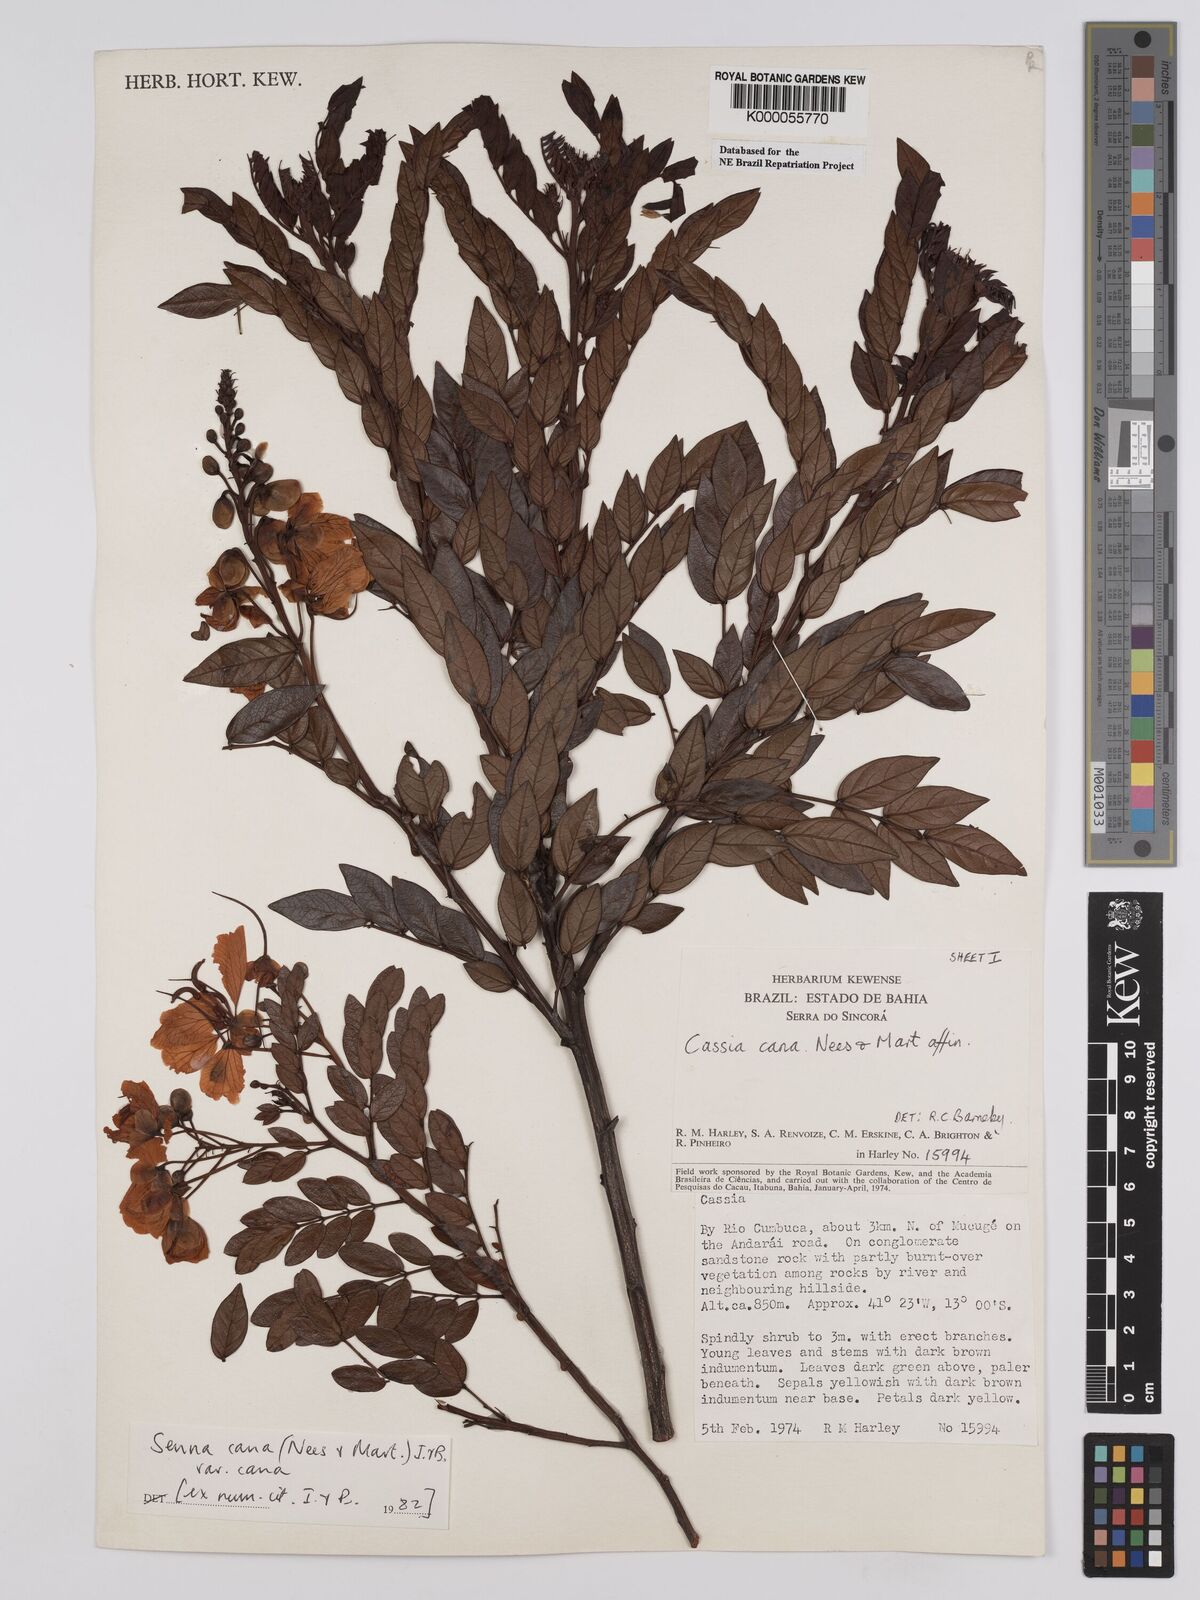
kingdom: Plantae
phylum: Tracheophyta
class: Magnoliopsida
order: Fabales
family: Fabaceae
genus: Senna
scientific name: Senna cana
